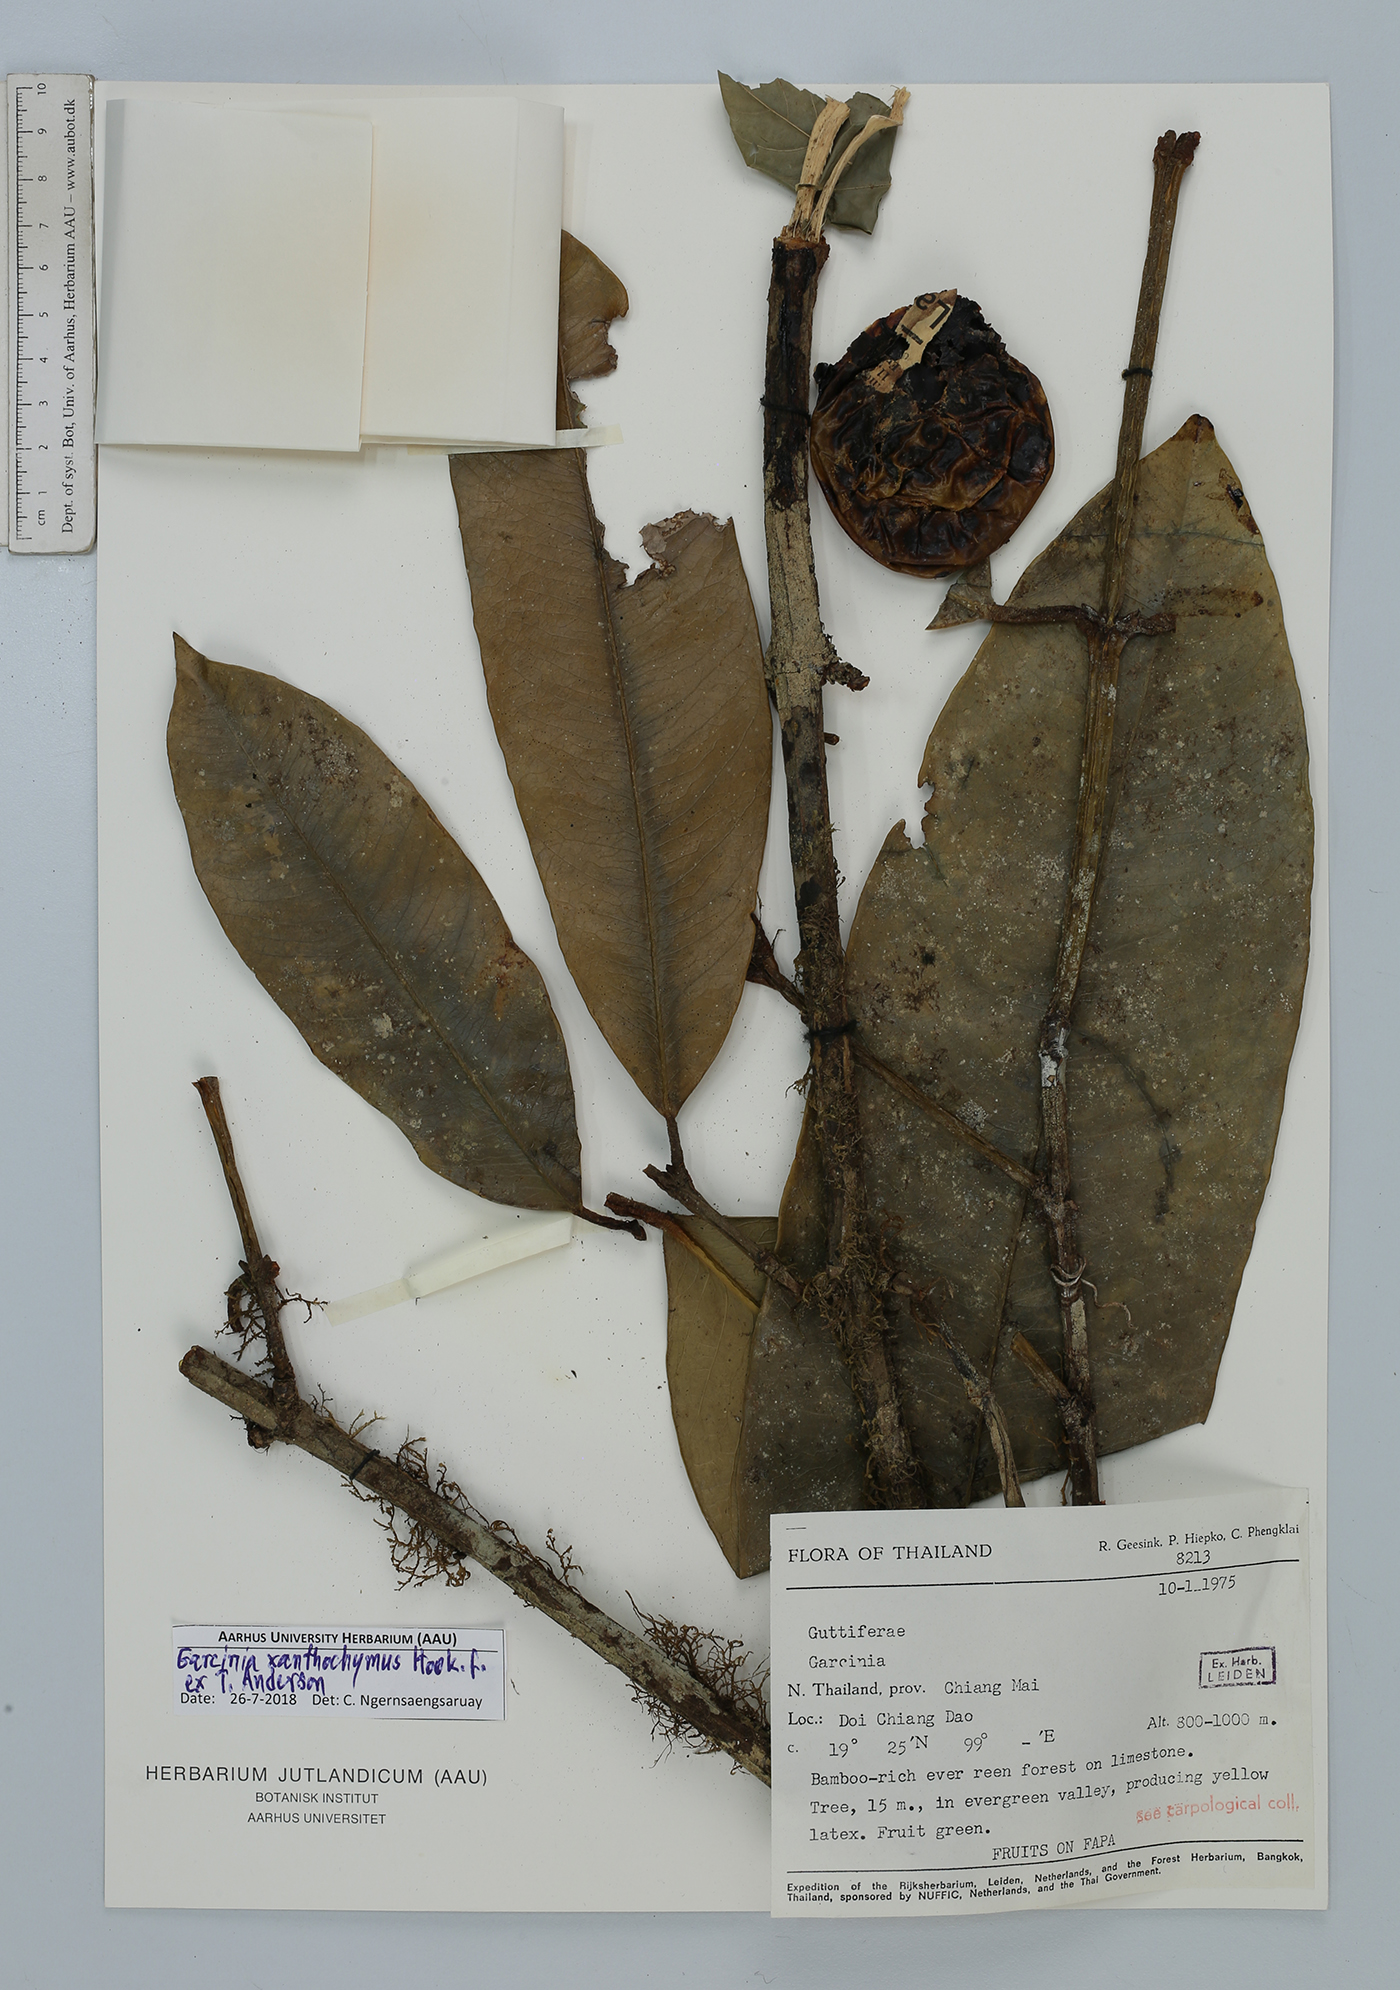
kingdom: Plantae
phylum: Tracheophyta
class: Magnoliopsida
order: Malpighiales
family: Clusiaceae
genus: Garcinia
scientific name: Garcinia xanthochymus
